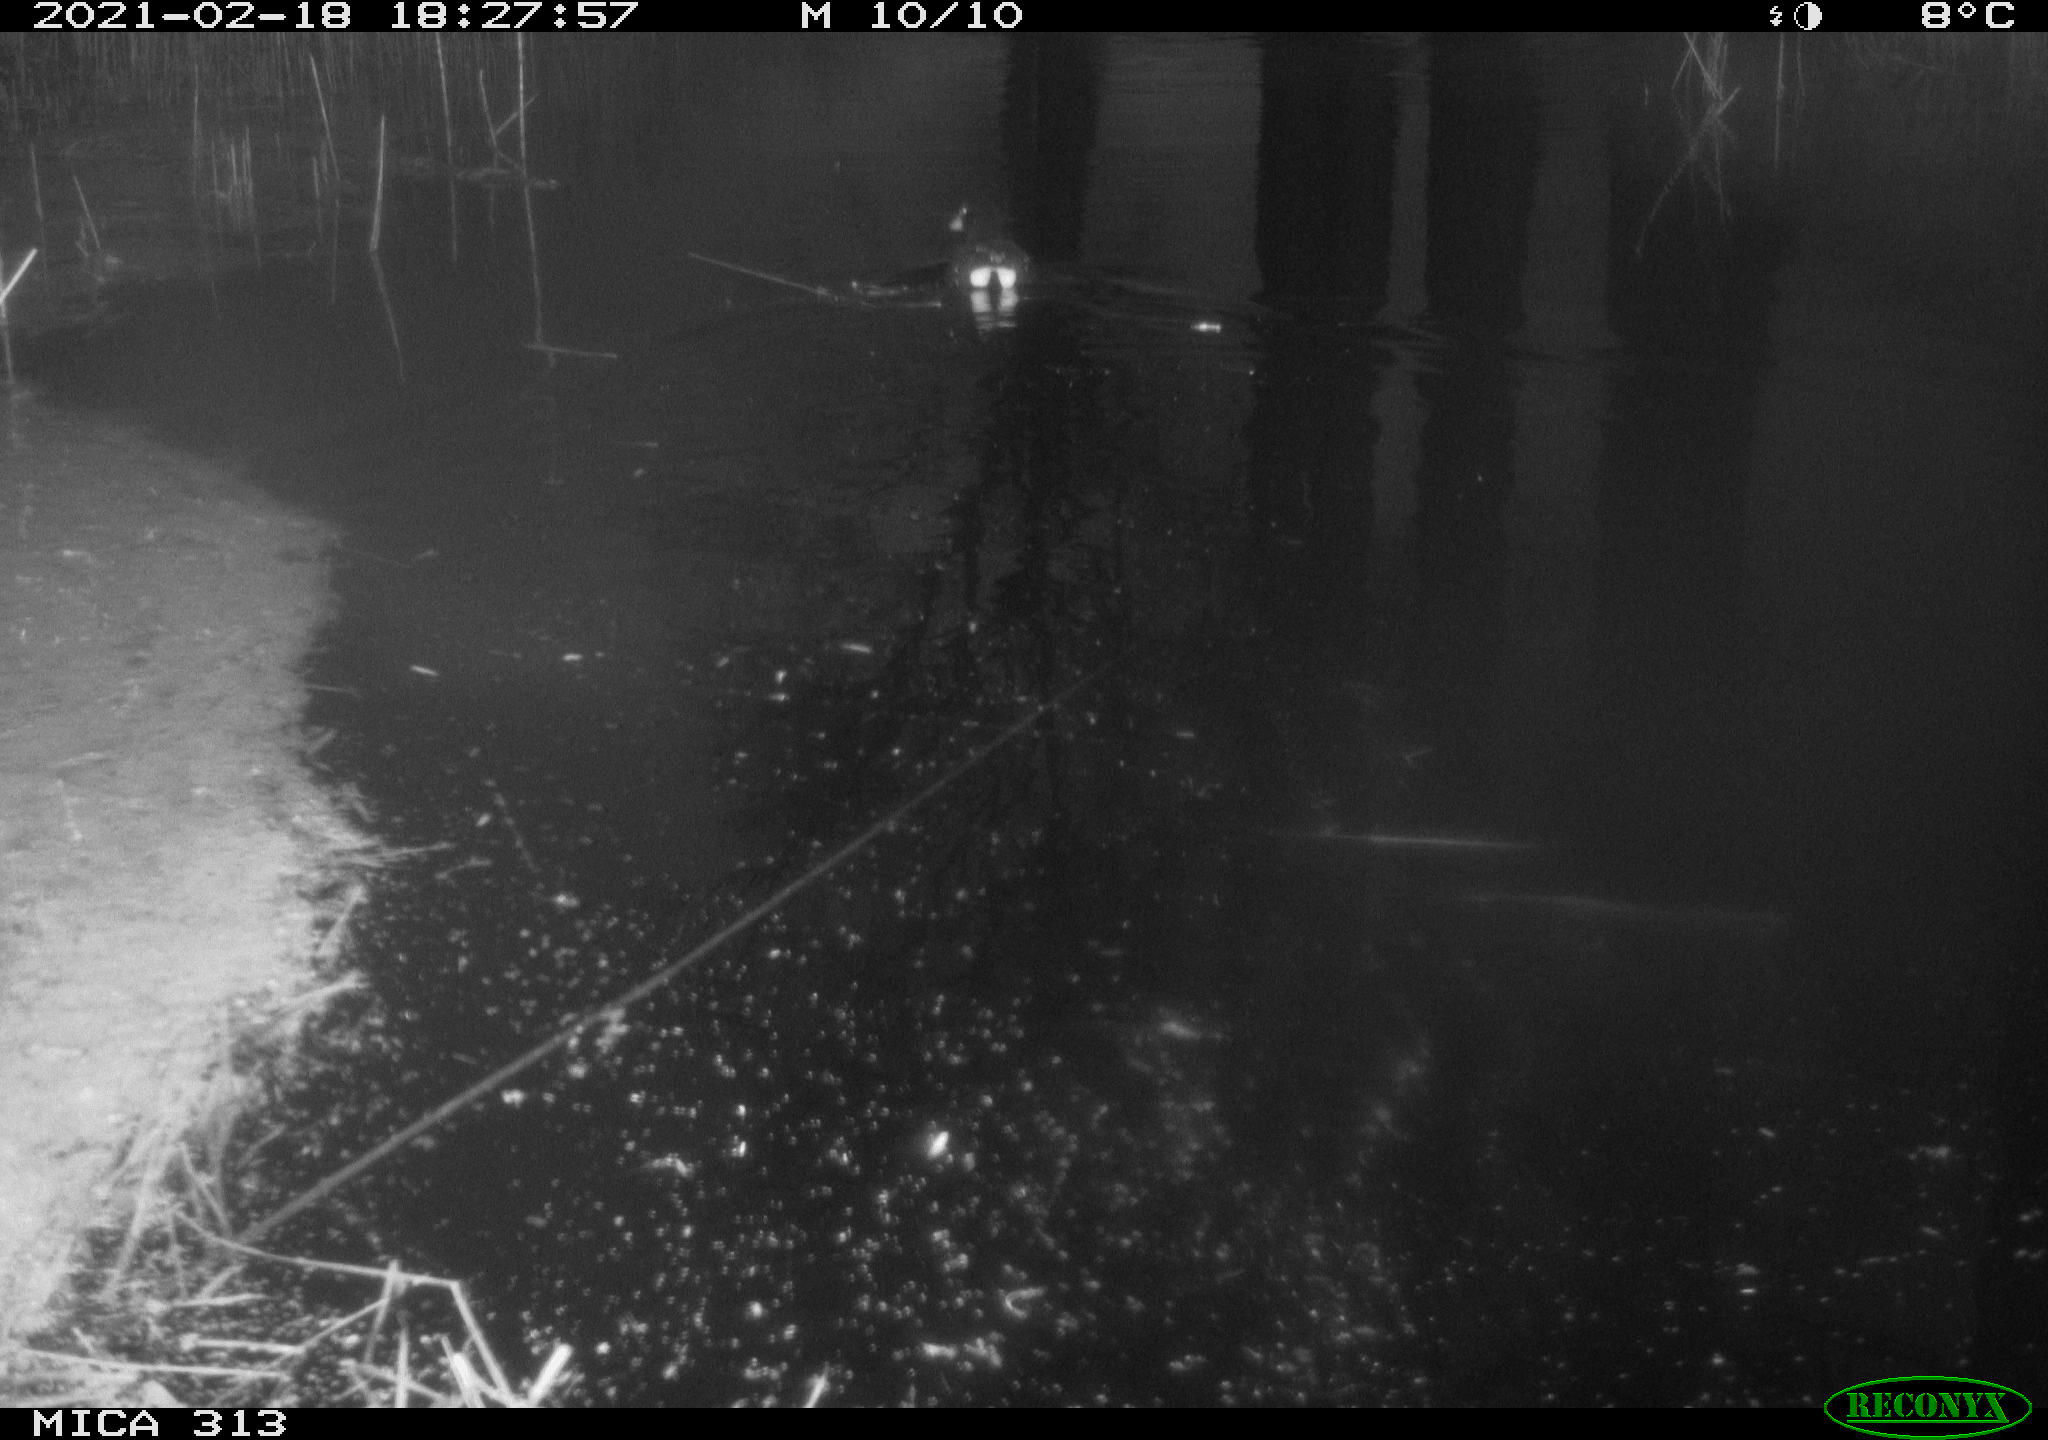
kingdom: Animalia
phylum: Chordata
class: Aves
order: Gruiformes
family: Rallidae
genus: Gallinula
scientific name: Gallinula chloropus
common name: Common moorhen
